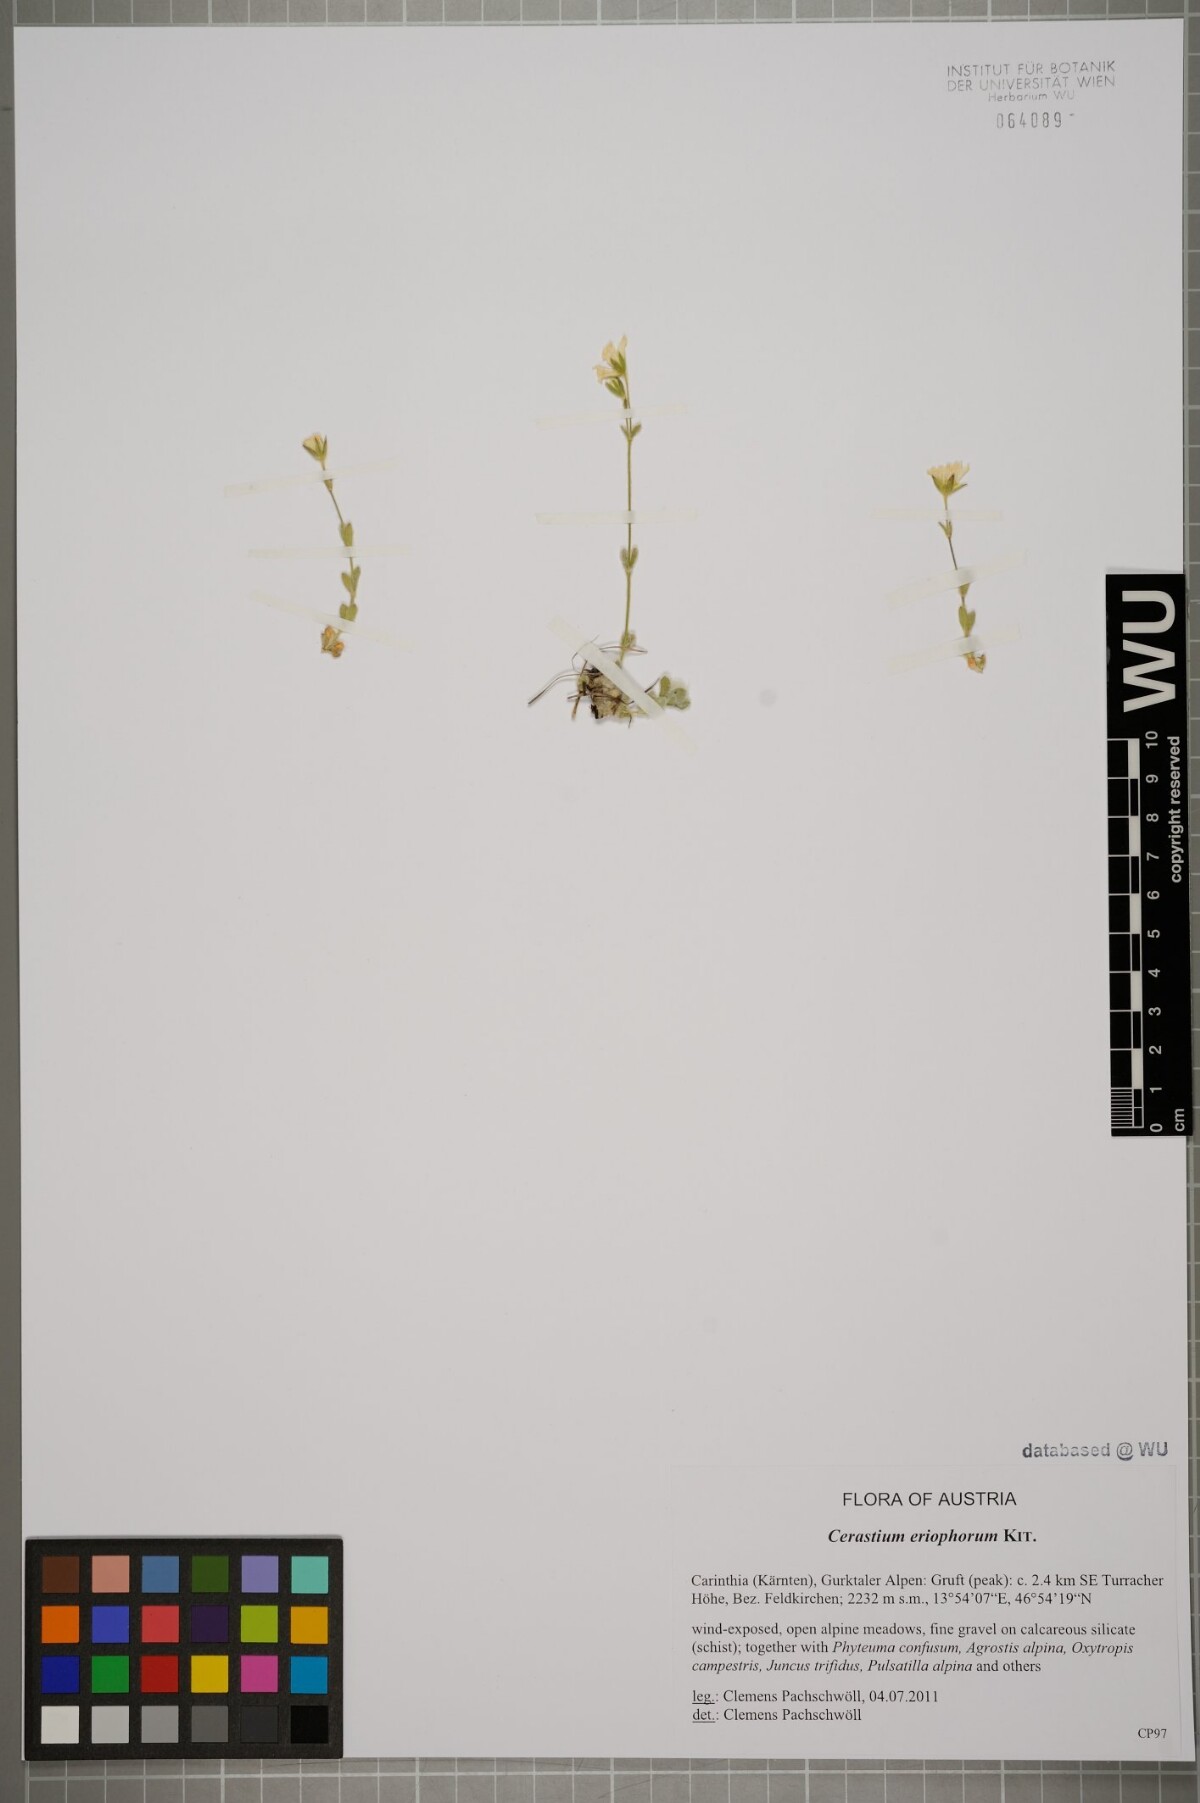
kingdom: Plantae
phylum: Tracheophyta
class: Magnoliopsida
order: Caryophyllales
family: Caryophyllaceae
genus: Cerastium
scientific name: Cerastium eriophorum
